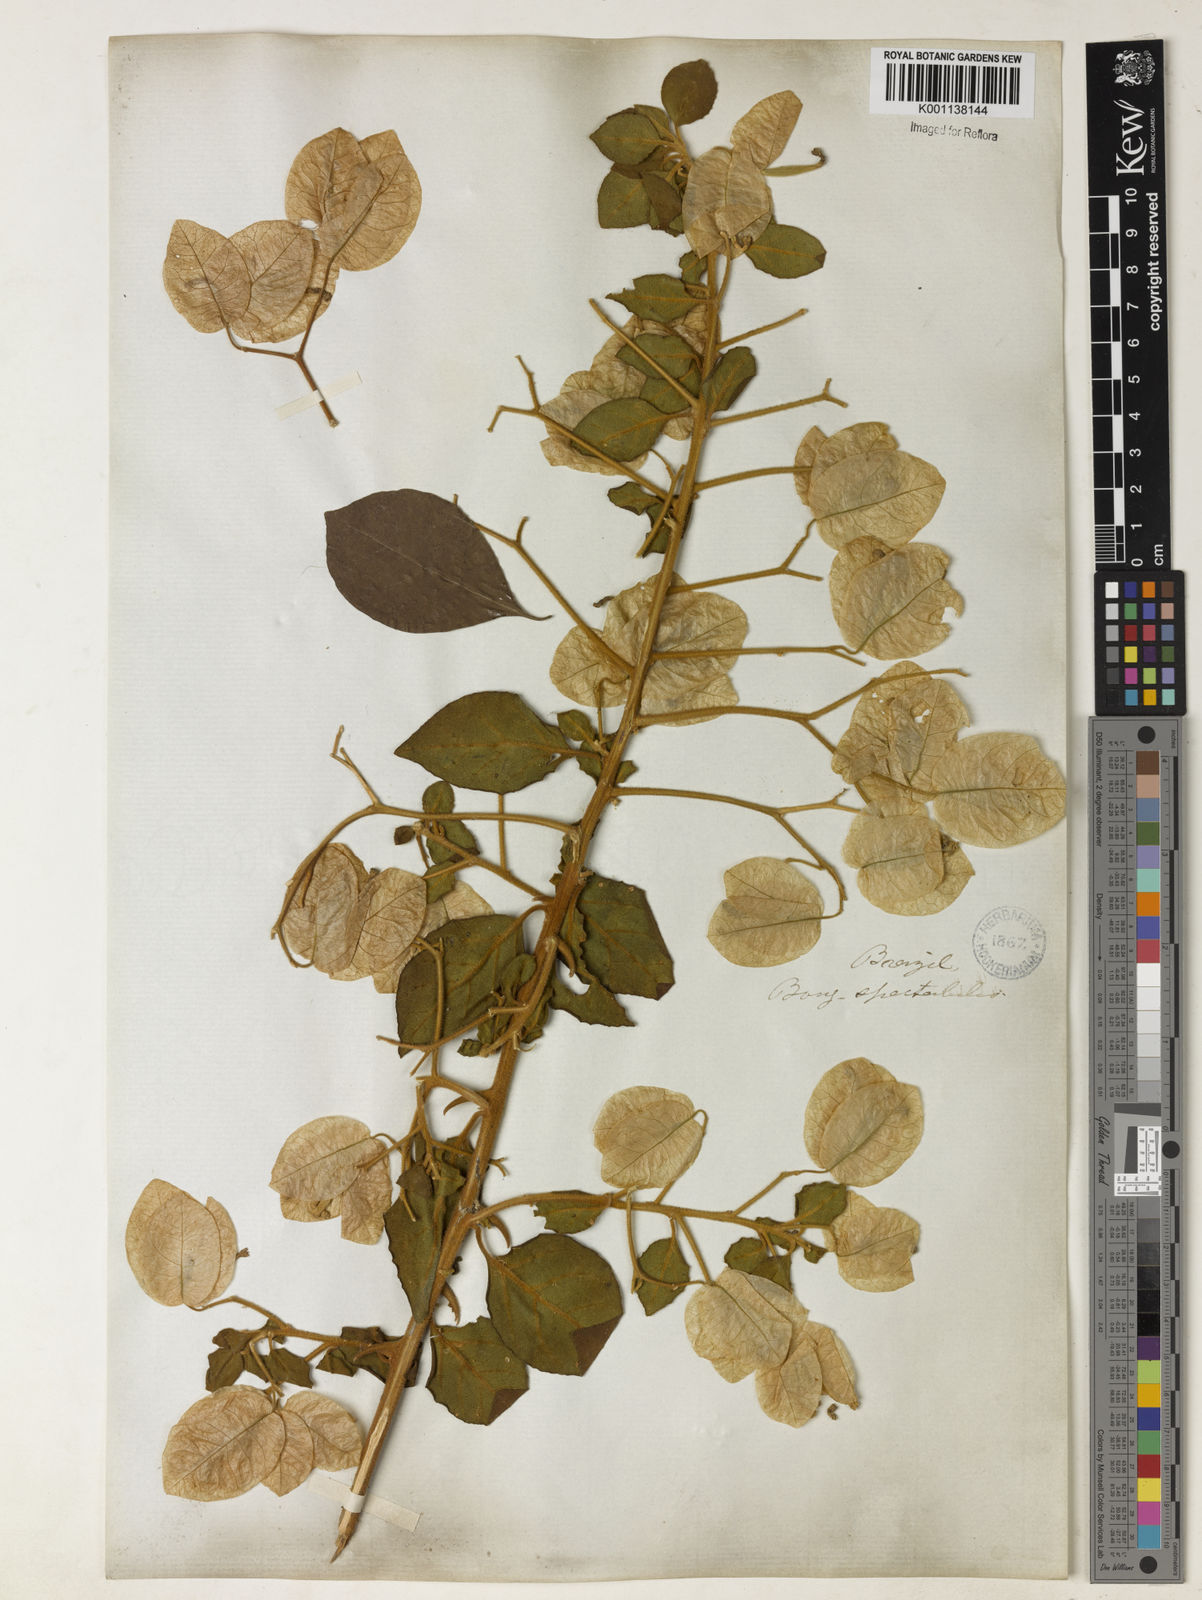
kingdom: Plantae
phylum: Tracheophyta
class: Magnoliopsida
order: Caryophyllales
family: Nyctaginaceae
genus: Bougainvillea
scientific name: Bougainvillea spectabilis
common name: Great bougainvillea
